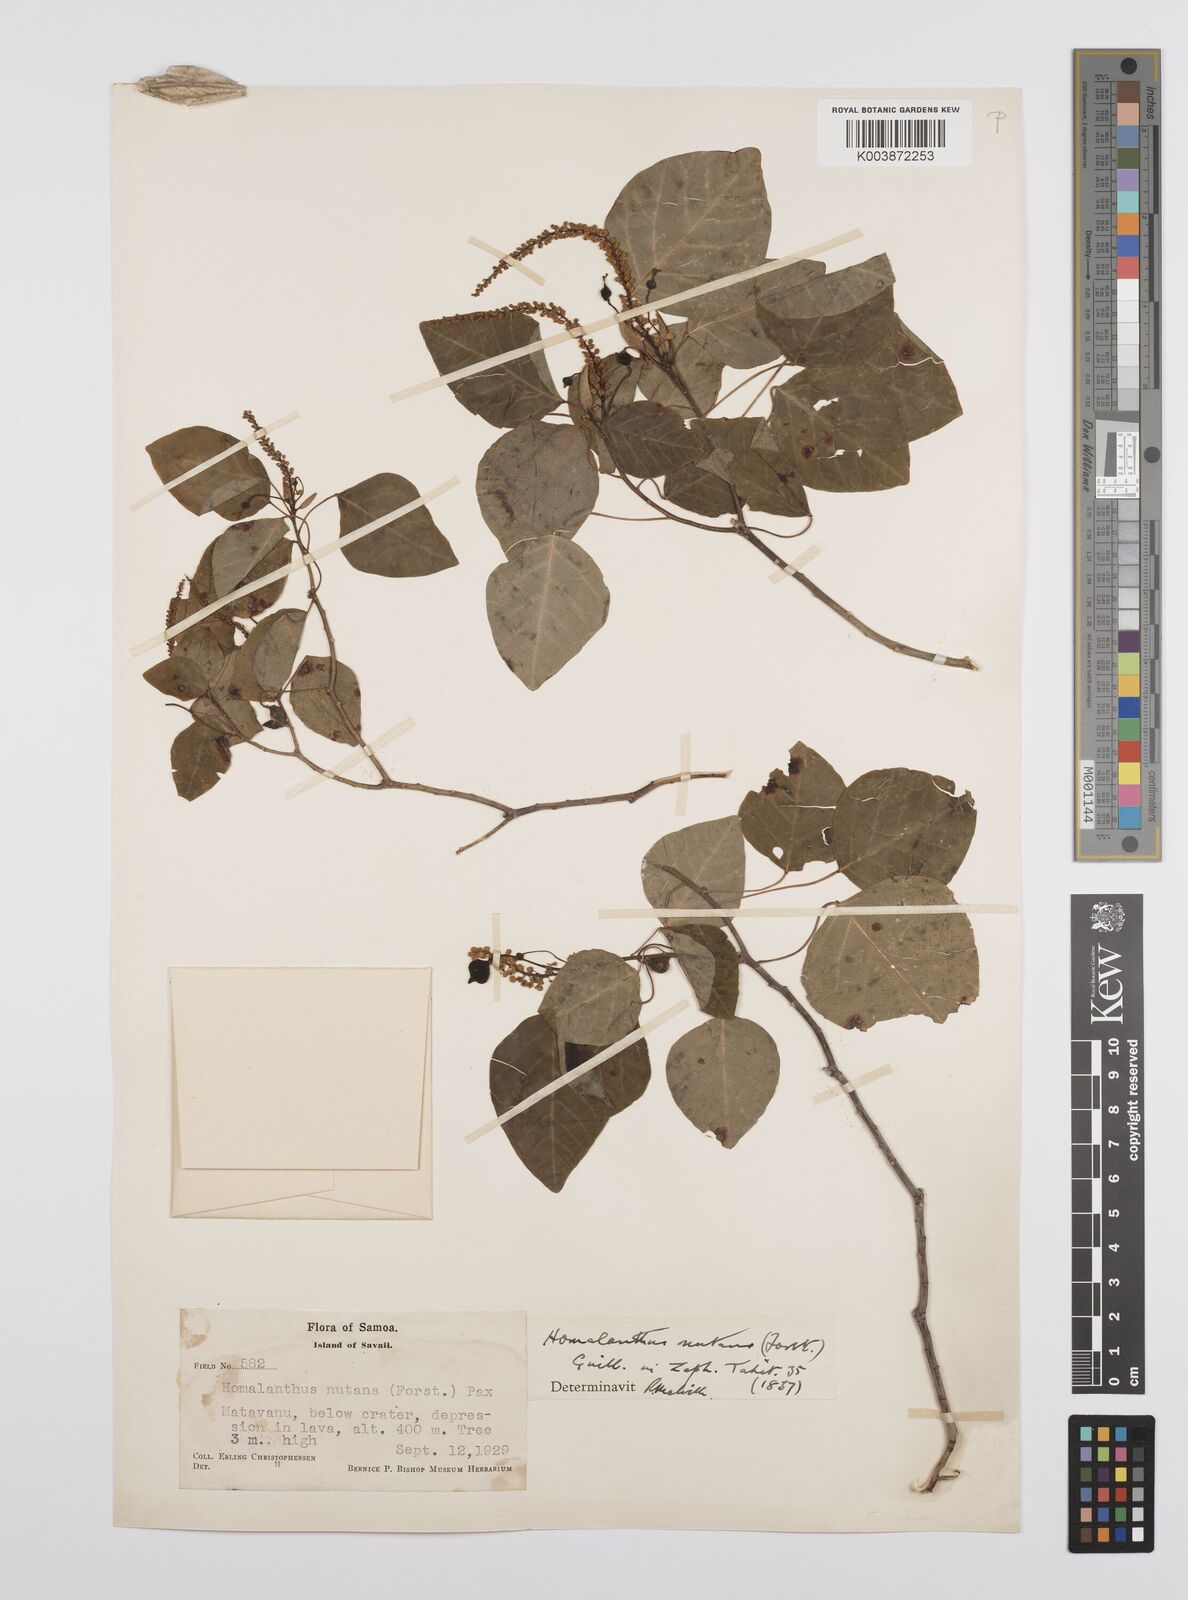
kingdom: Plantae
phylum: Tracheophyta
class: Magnoliopsida
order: Malpighiales
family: Euphorbiaceae
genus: Homalanthus
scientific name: Homalanthus nutans
